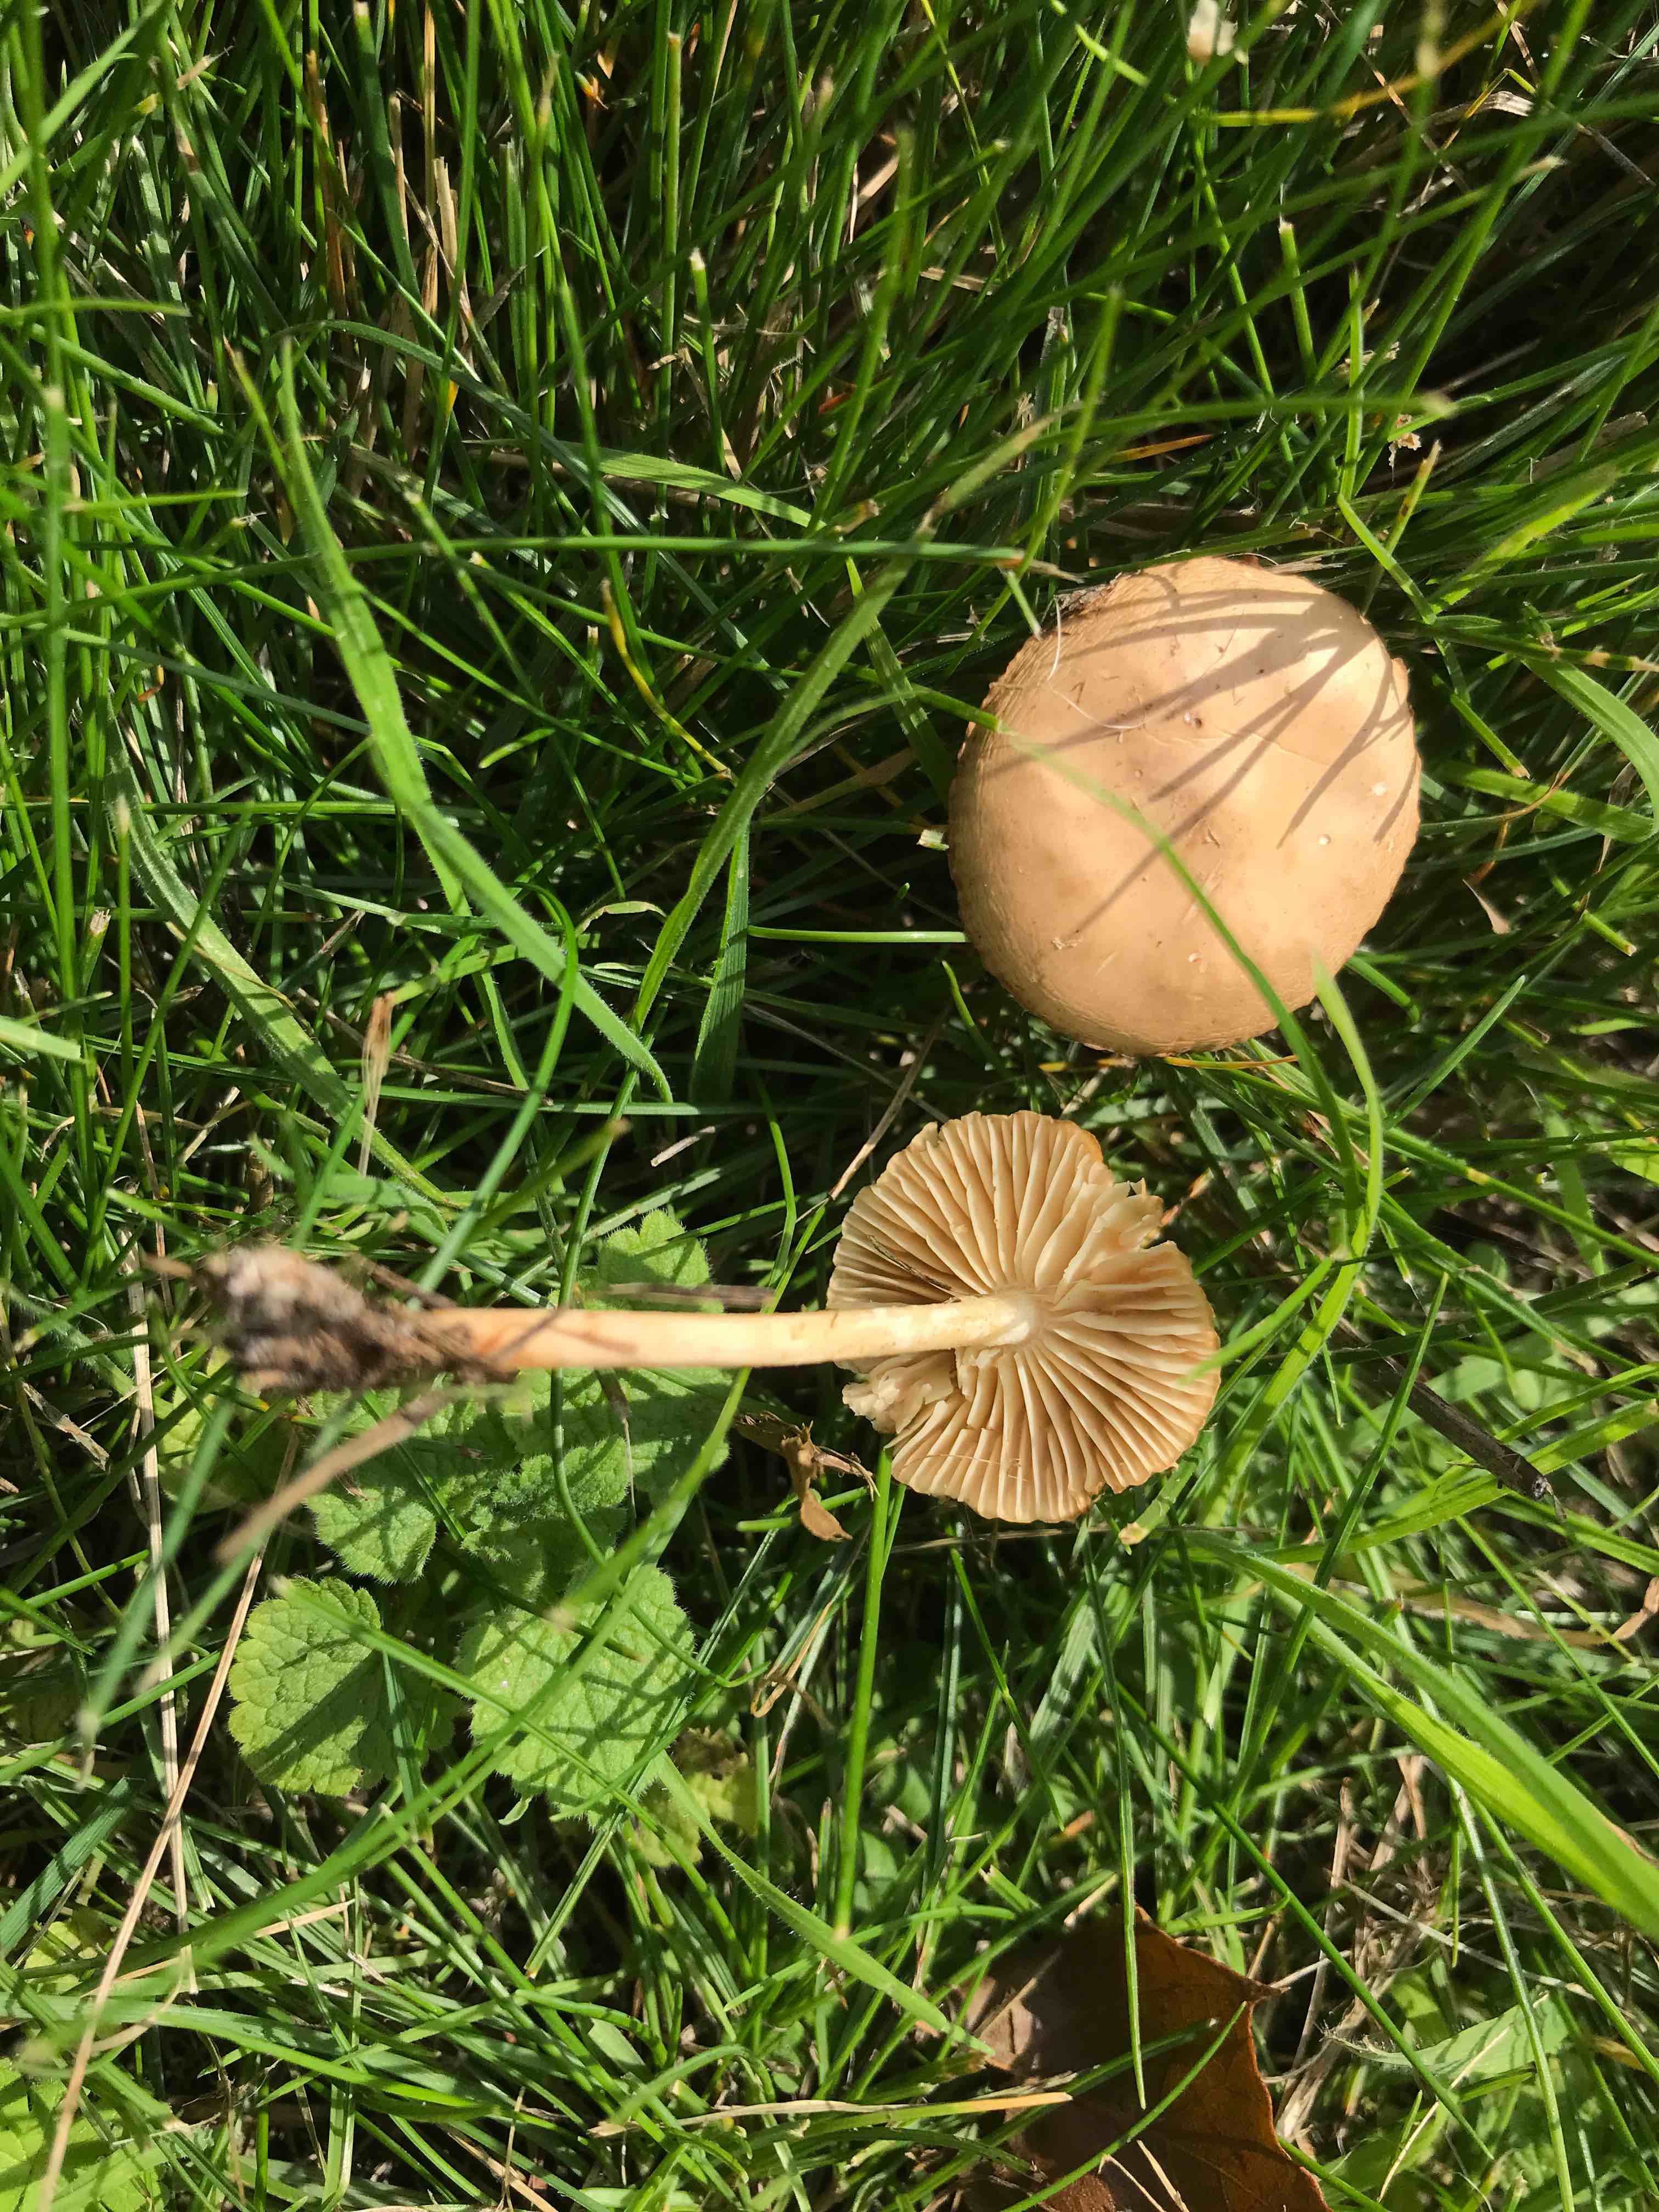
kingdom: Fungi
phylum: Basidiomycota
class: Agaricomycetes
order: Agaricales
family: Marasmiaceae
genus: Marasmius
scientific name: Marasmius oreades
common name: elledans-bruskhat
